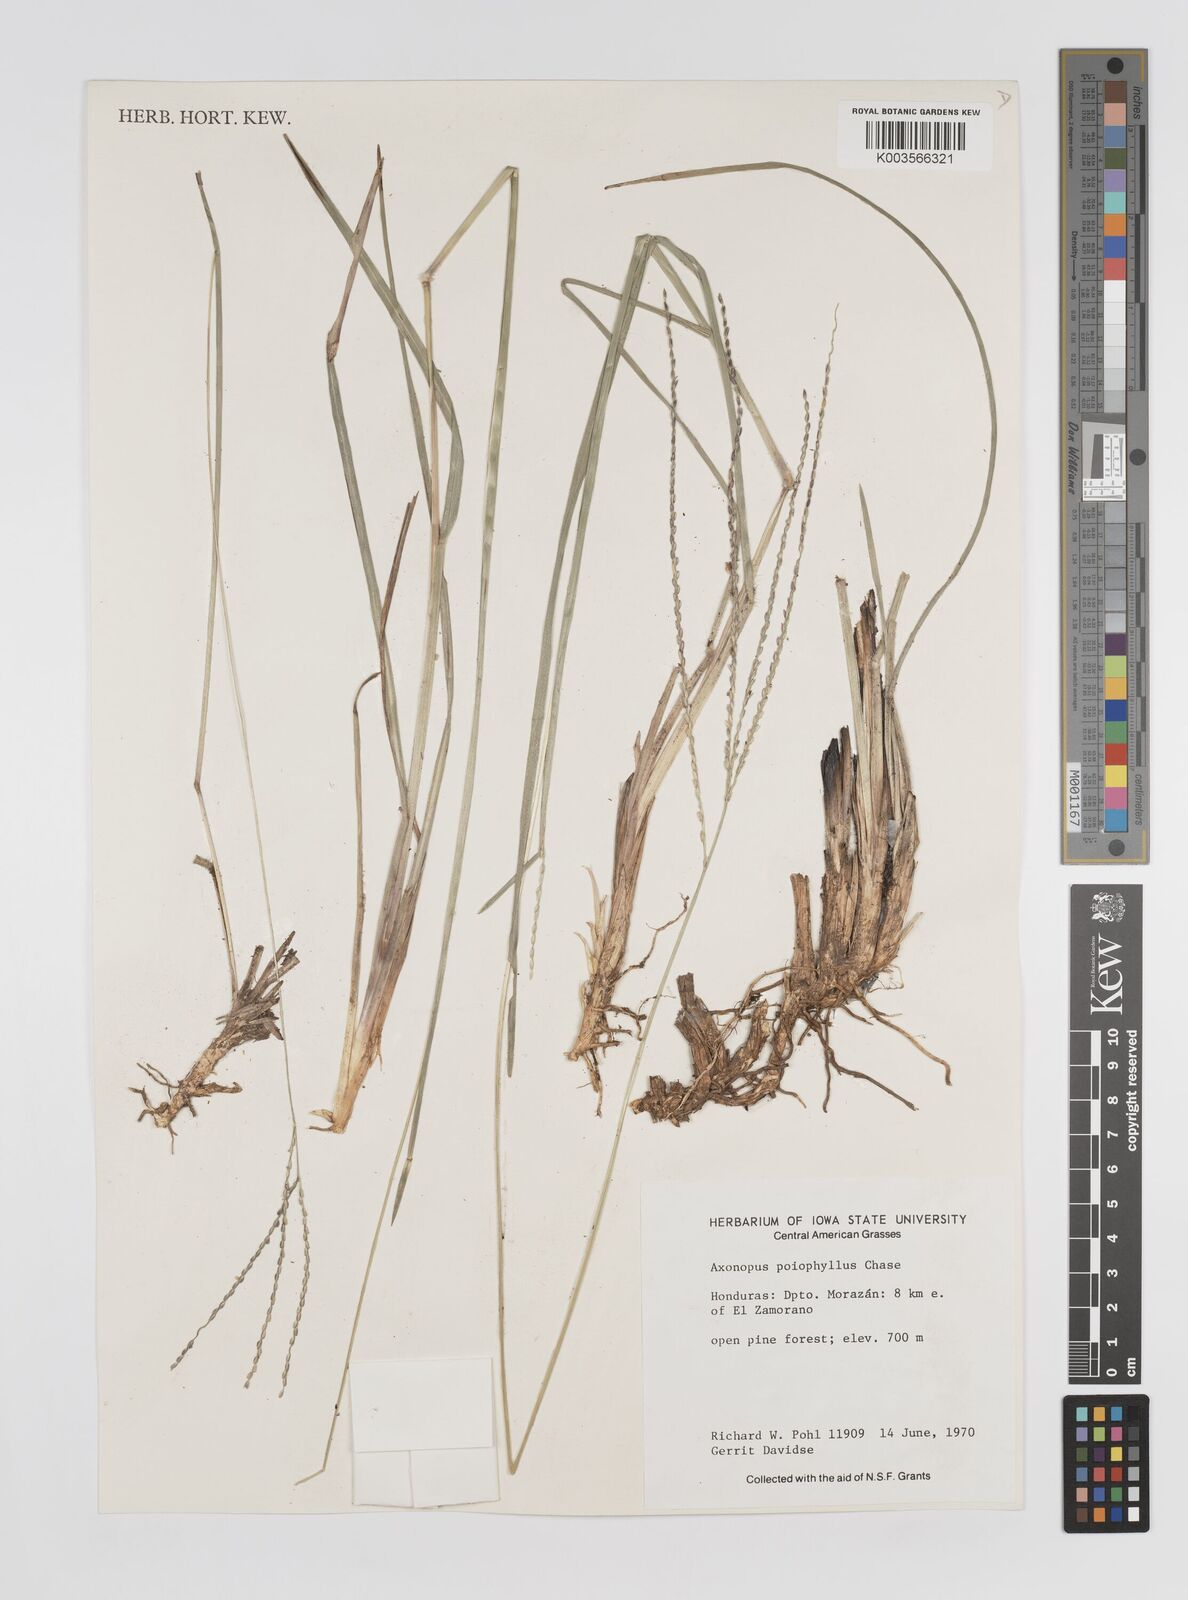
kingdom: Plantae
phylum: Tracheophyta
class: Liliopsida
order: Poales
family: Poaceae
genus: Axonopus
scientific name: Axonopus
